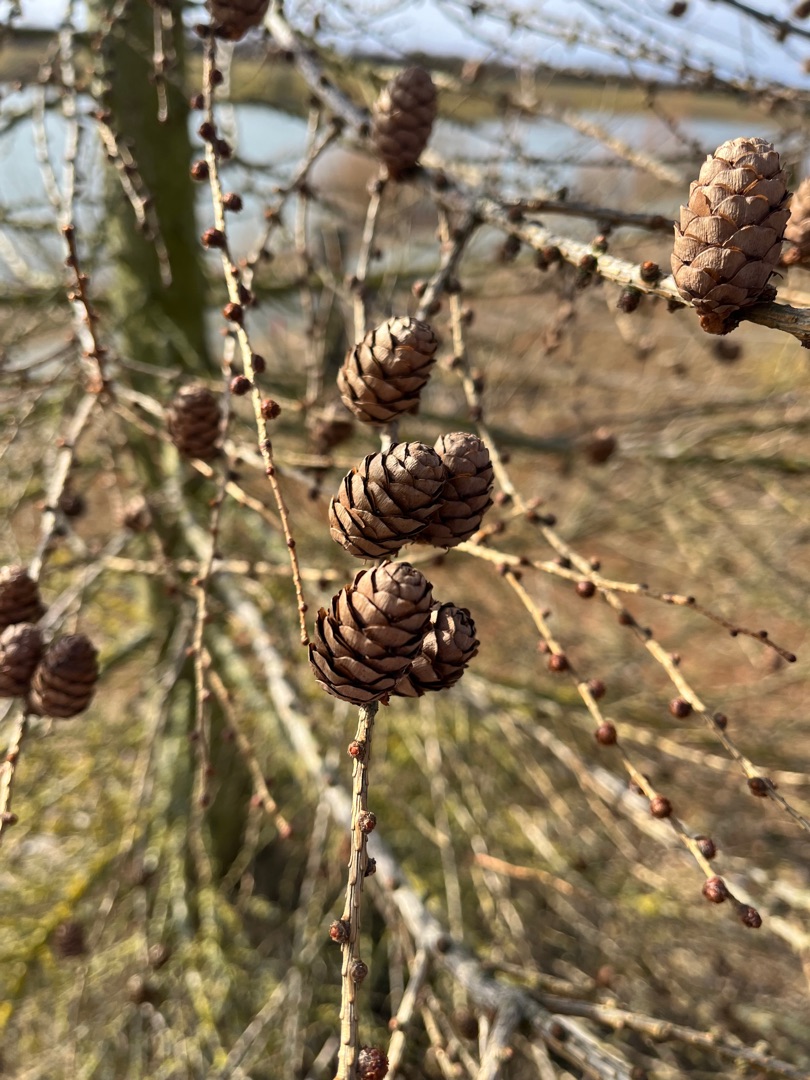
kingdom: Plantae
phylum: Tracheophyta
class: Pinopsida
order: Pinales
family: Pinaceae
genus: Larix
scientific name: Larix decidua
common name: Europæisk lærk
